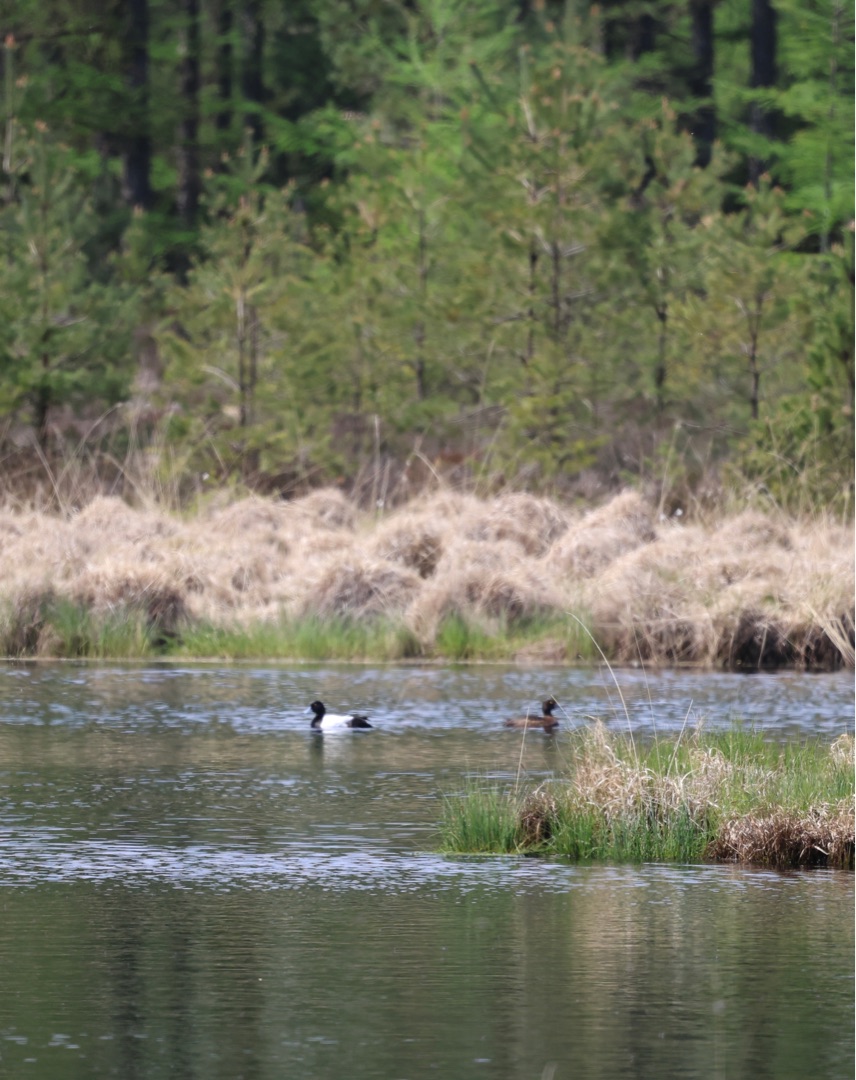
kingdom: Animalia
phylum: Chordata
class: Aves
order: Anseriformes
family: Anatidae
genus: Aythya
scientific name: Aythya fuligula
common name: Troldand
